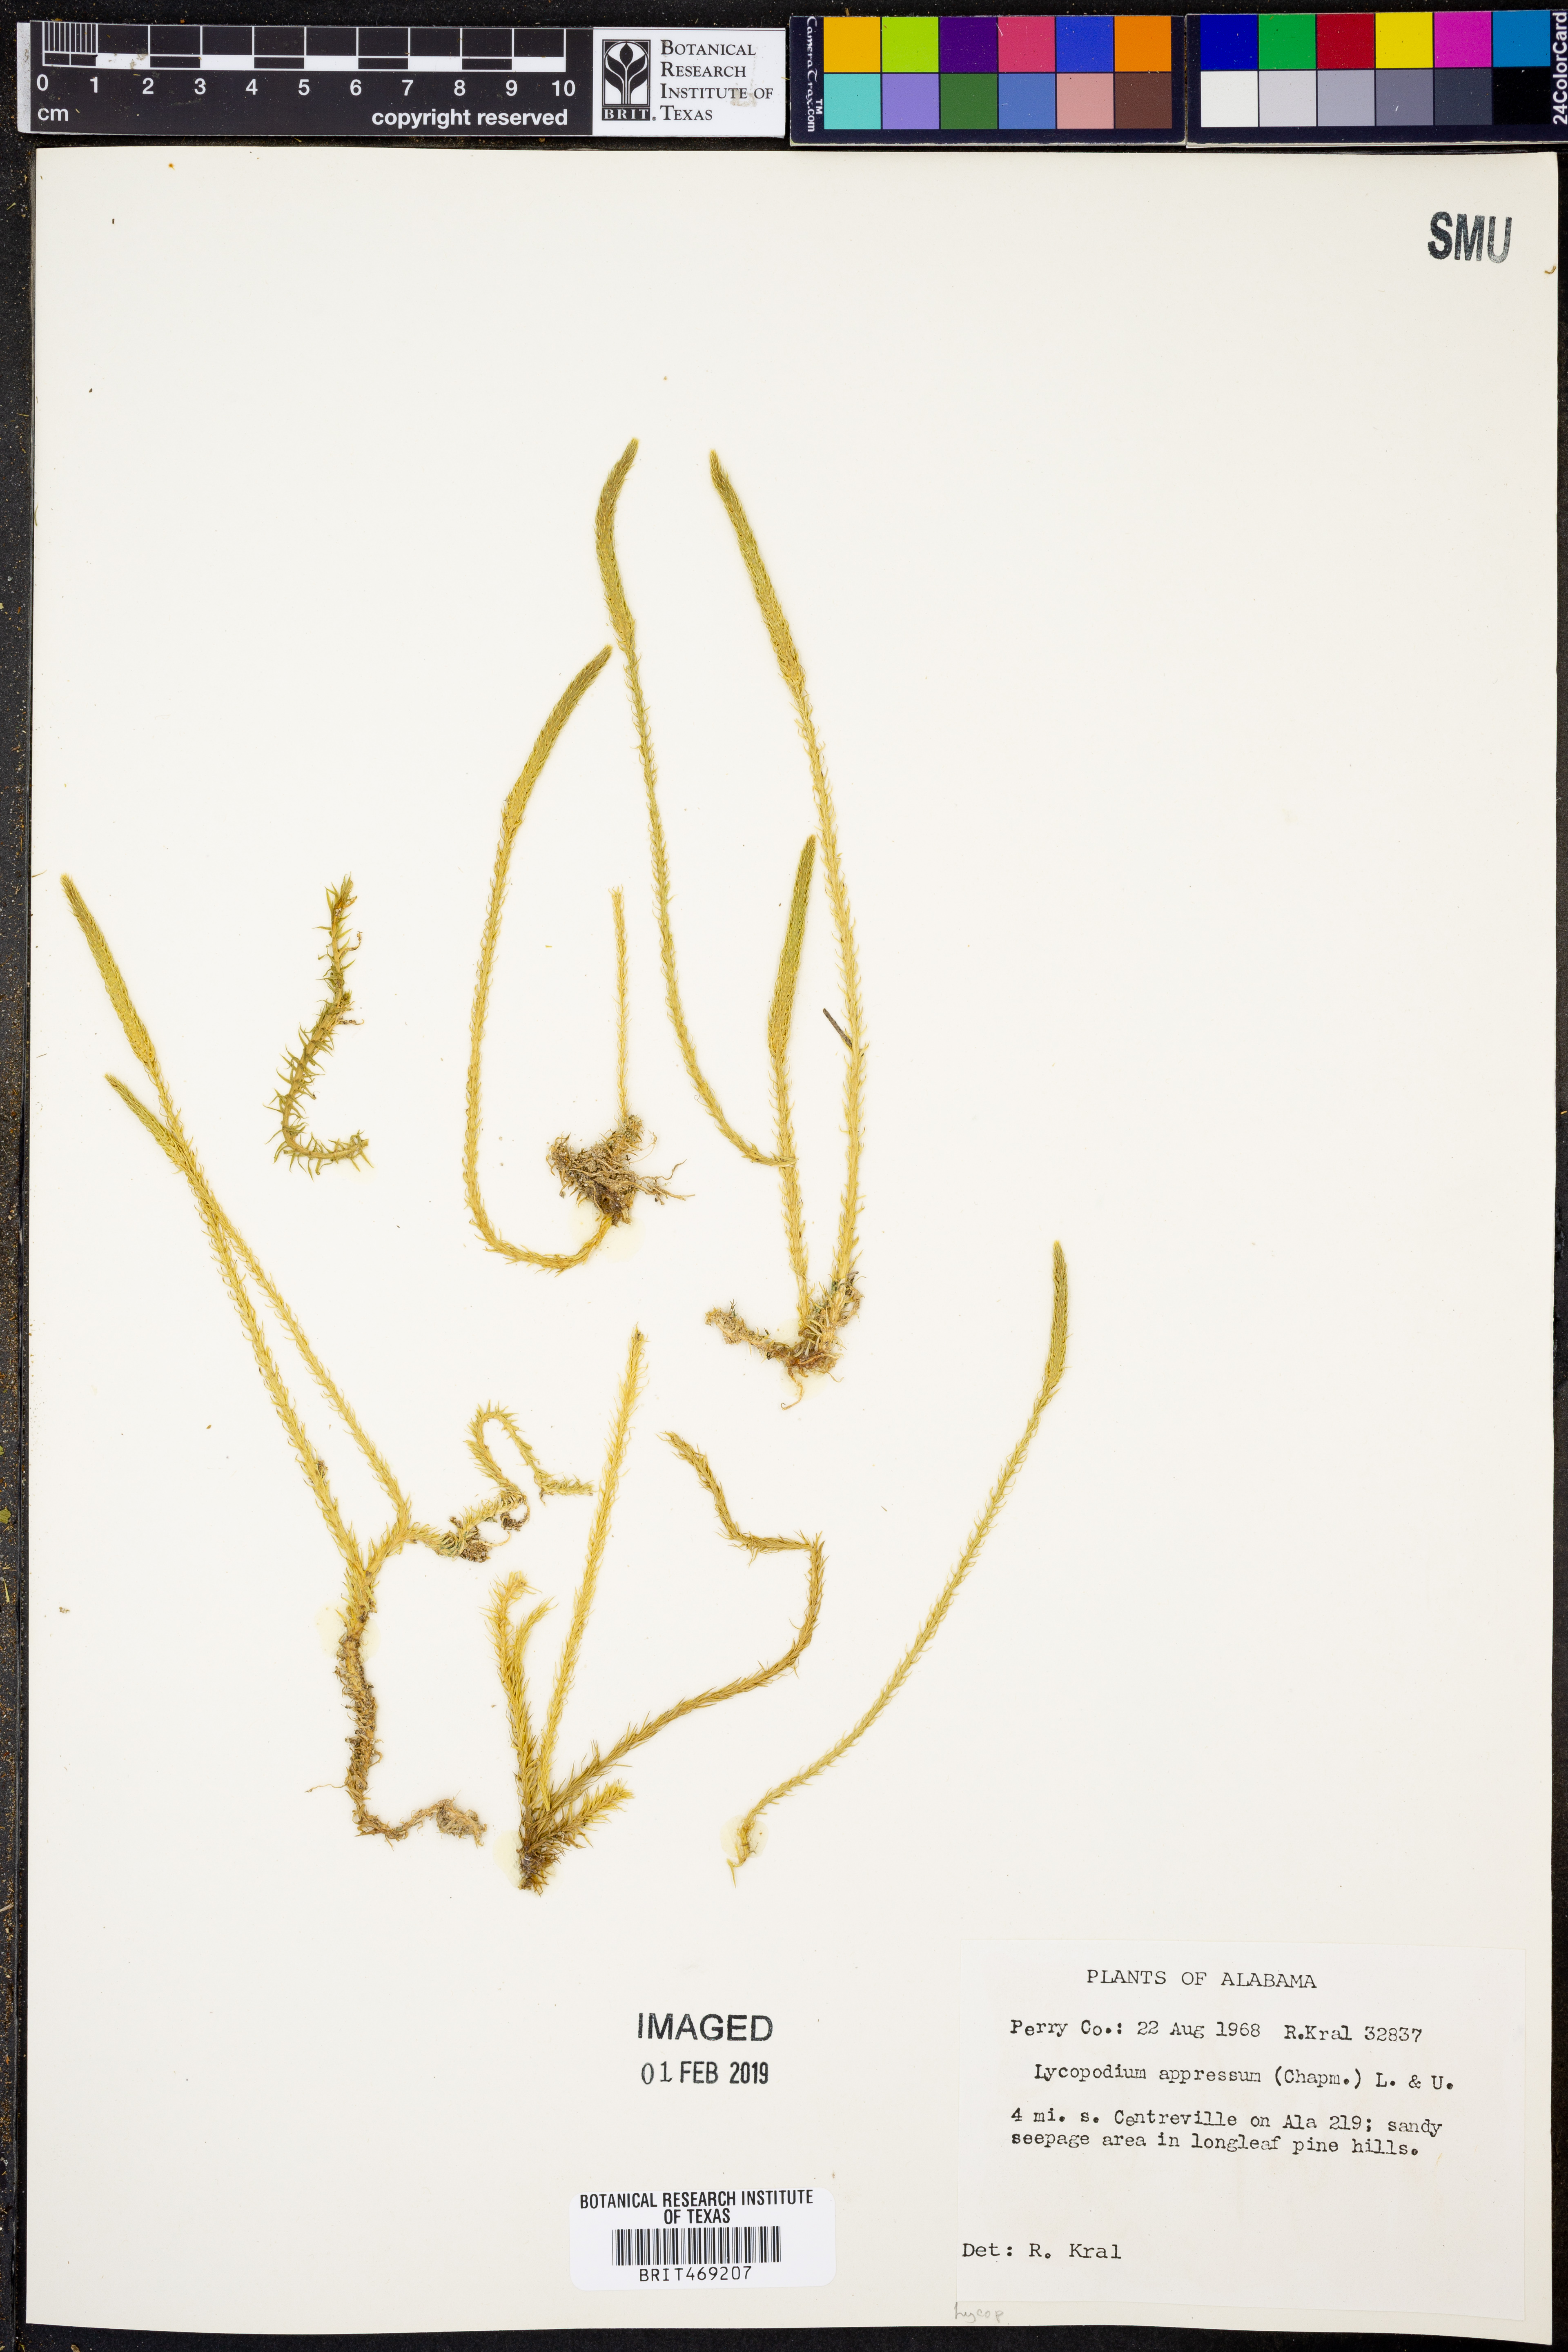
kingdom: Plantae
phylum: Tracheophyta
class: Lycopodiopsida
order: Lycopodiales
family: Lycopodiaceae
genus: Lycopodiella
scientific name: Lycopodiella appressa
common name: Appressed bog clubmoss
